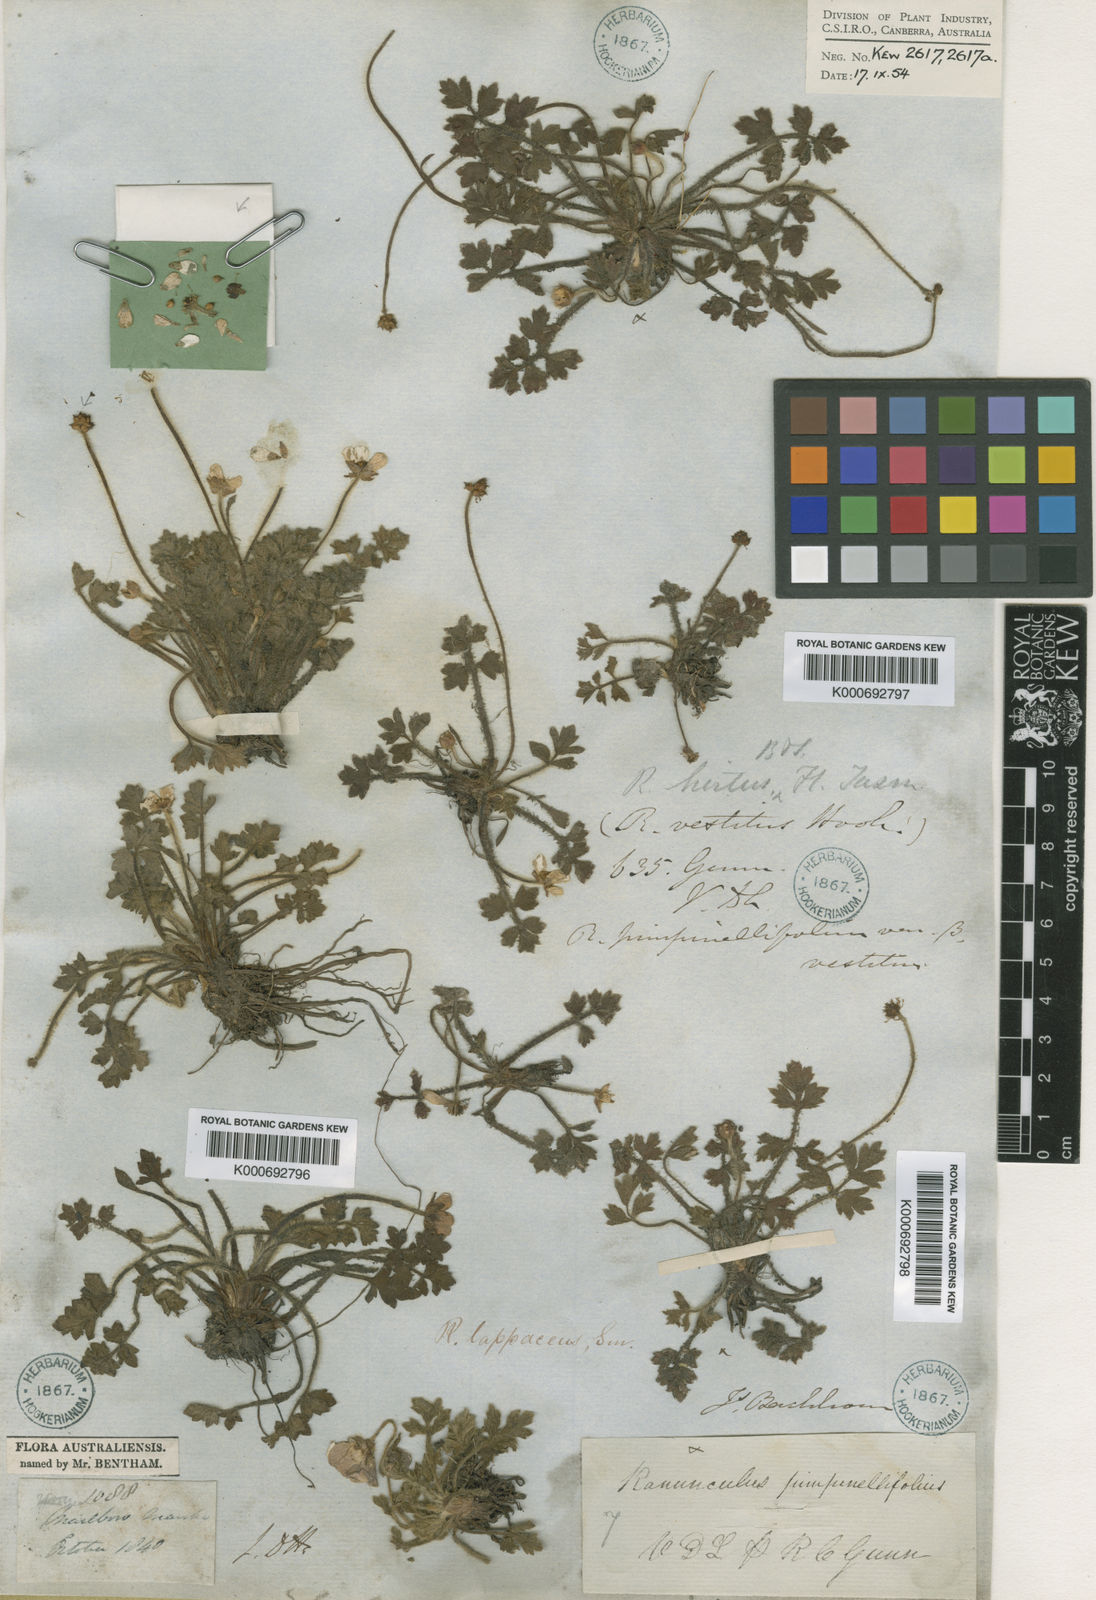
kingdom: Plantae
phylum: Tracheophyta
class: Magnoliopsida
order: Ranunculales
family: Ranunculaceae
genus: Ranunculus
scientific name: Ranunculus pimpinellifolius
